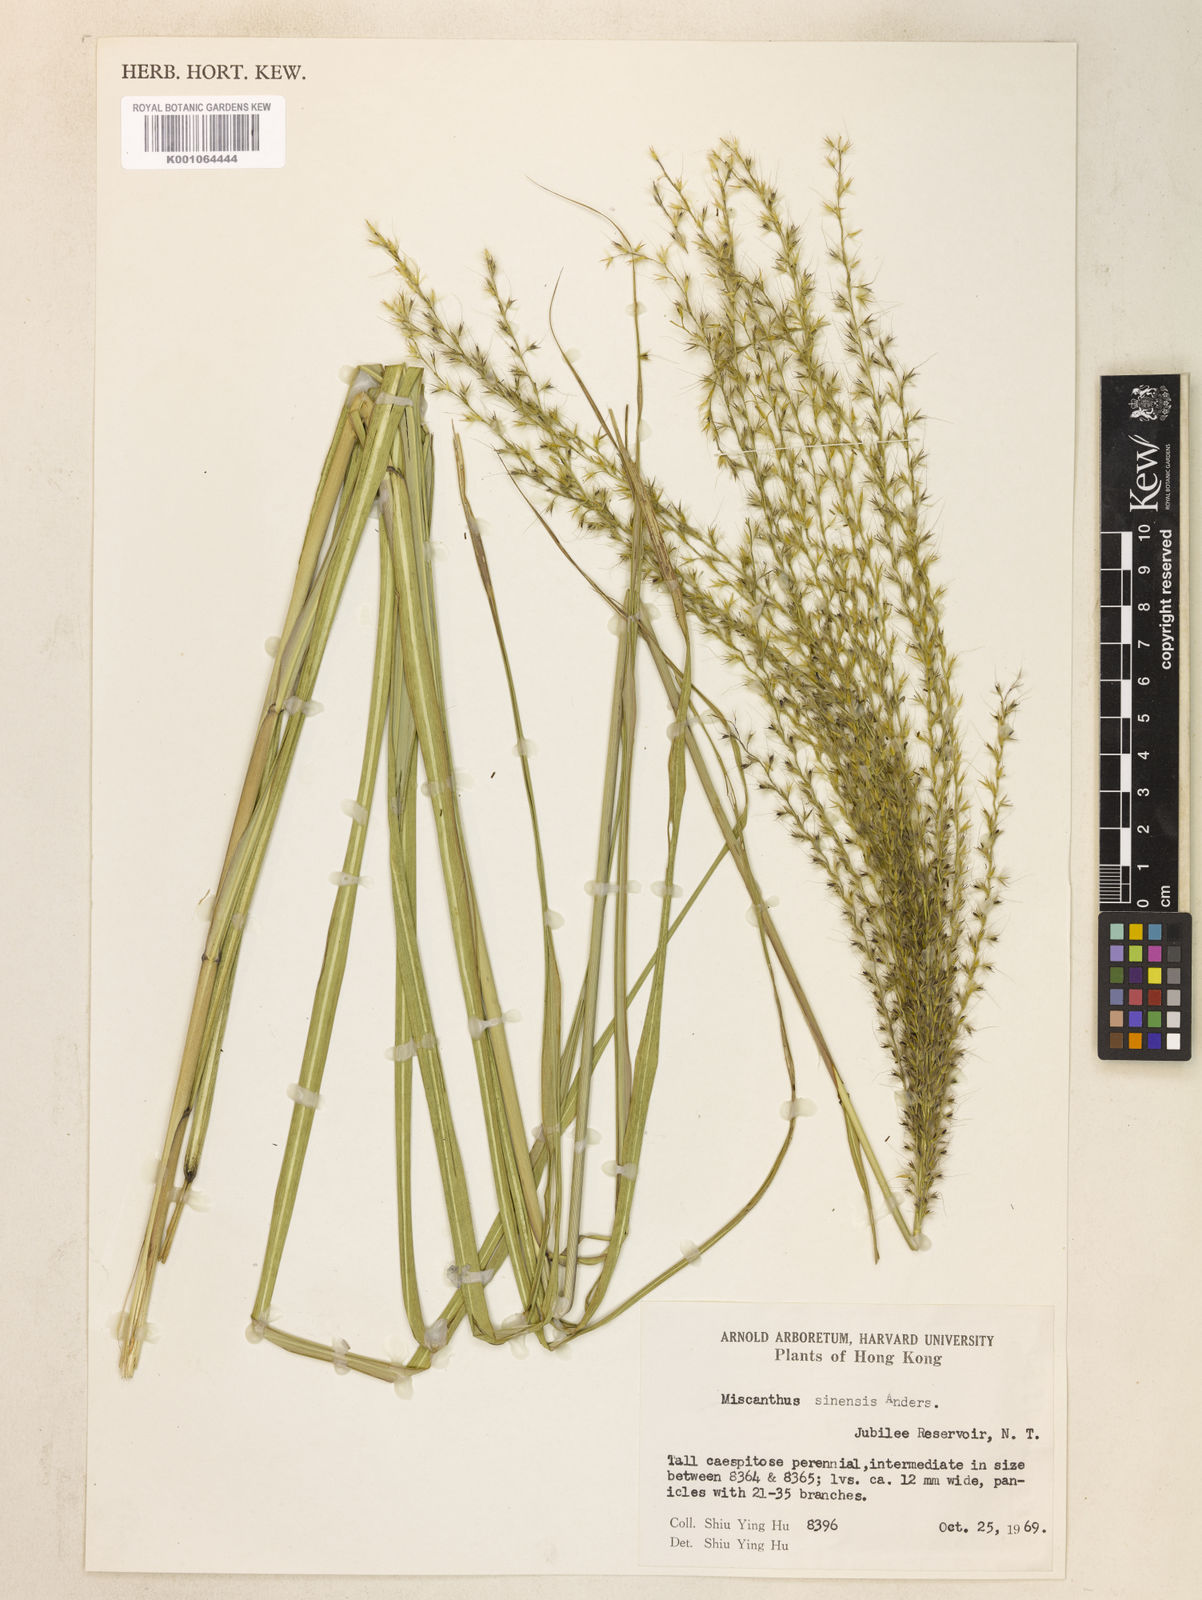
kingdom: Plantae
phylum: Tracheophyta
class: Liliopsida
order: Poales
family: Poaceae
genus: Miscanthus
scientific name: Miscanthus sinensis
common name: Chinese silvergrass
